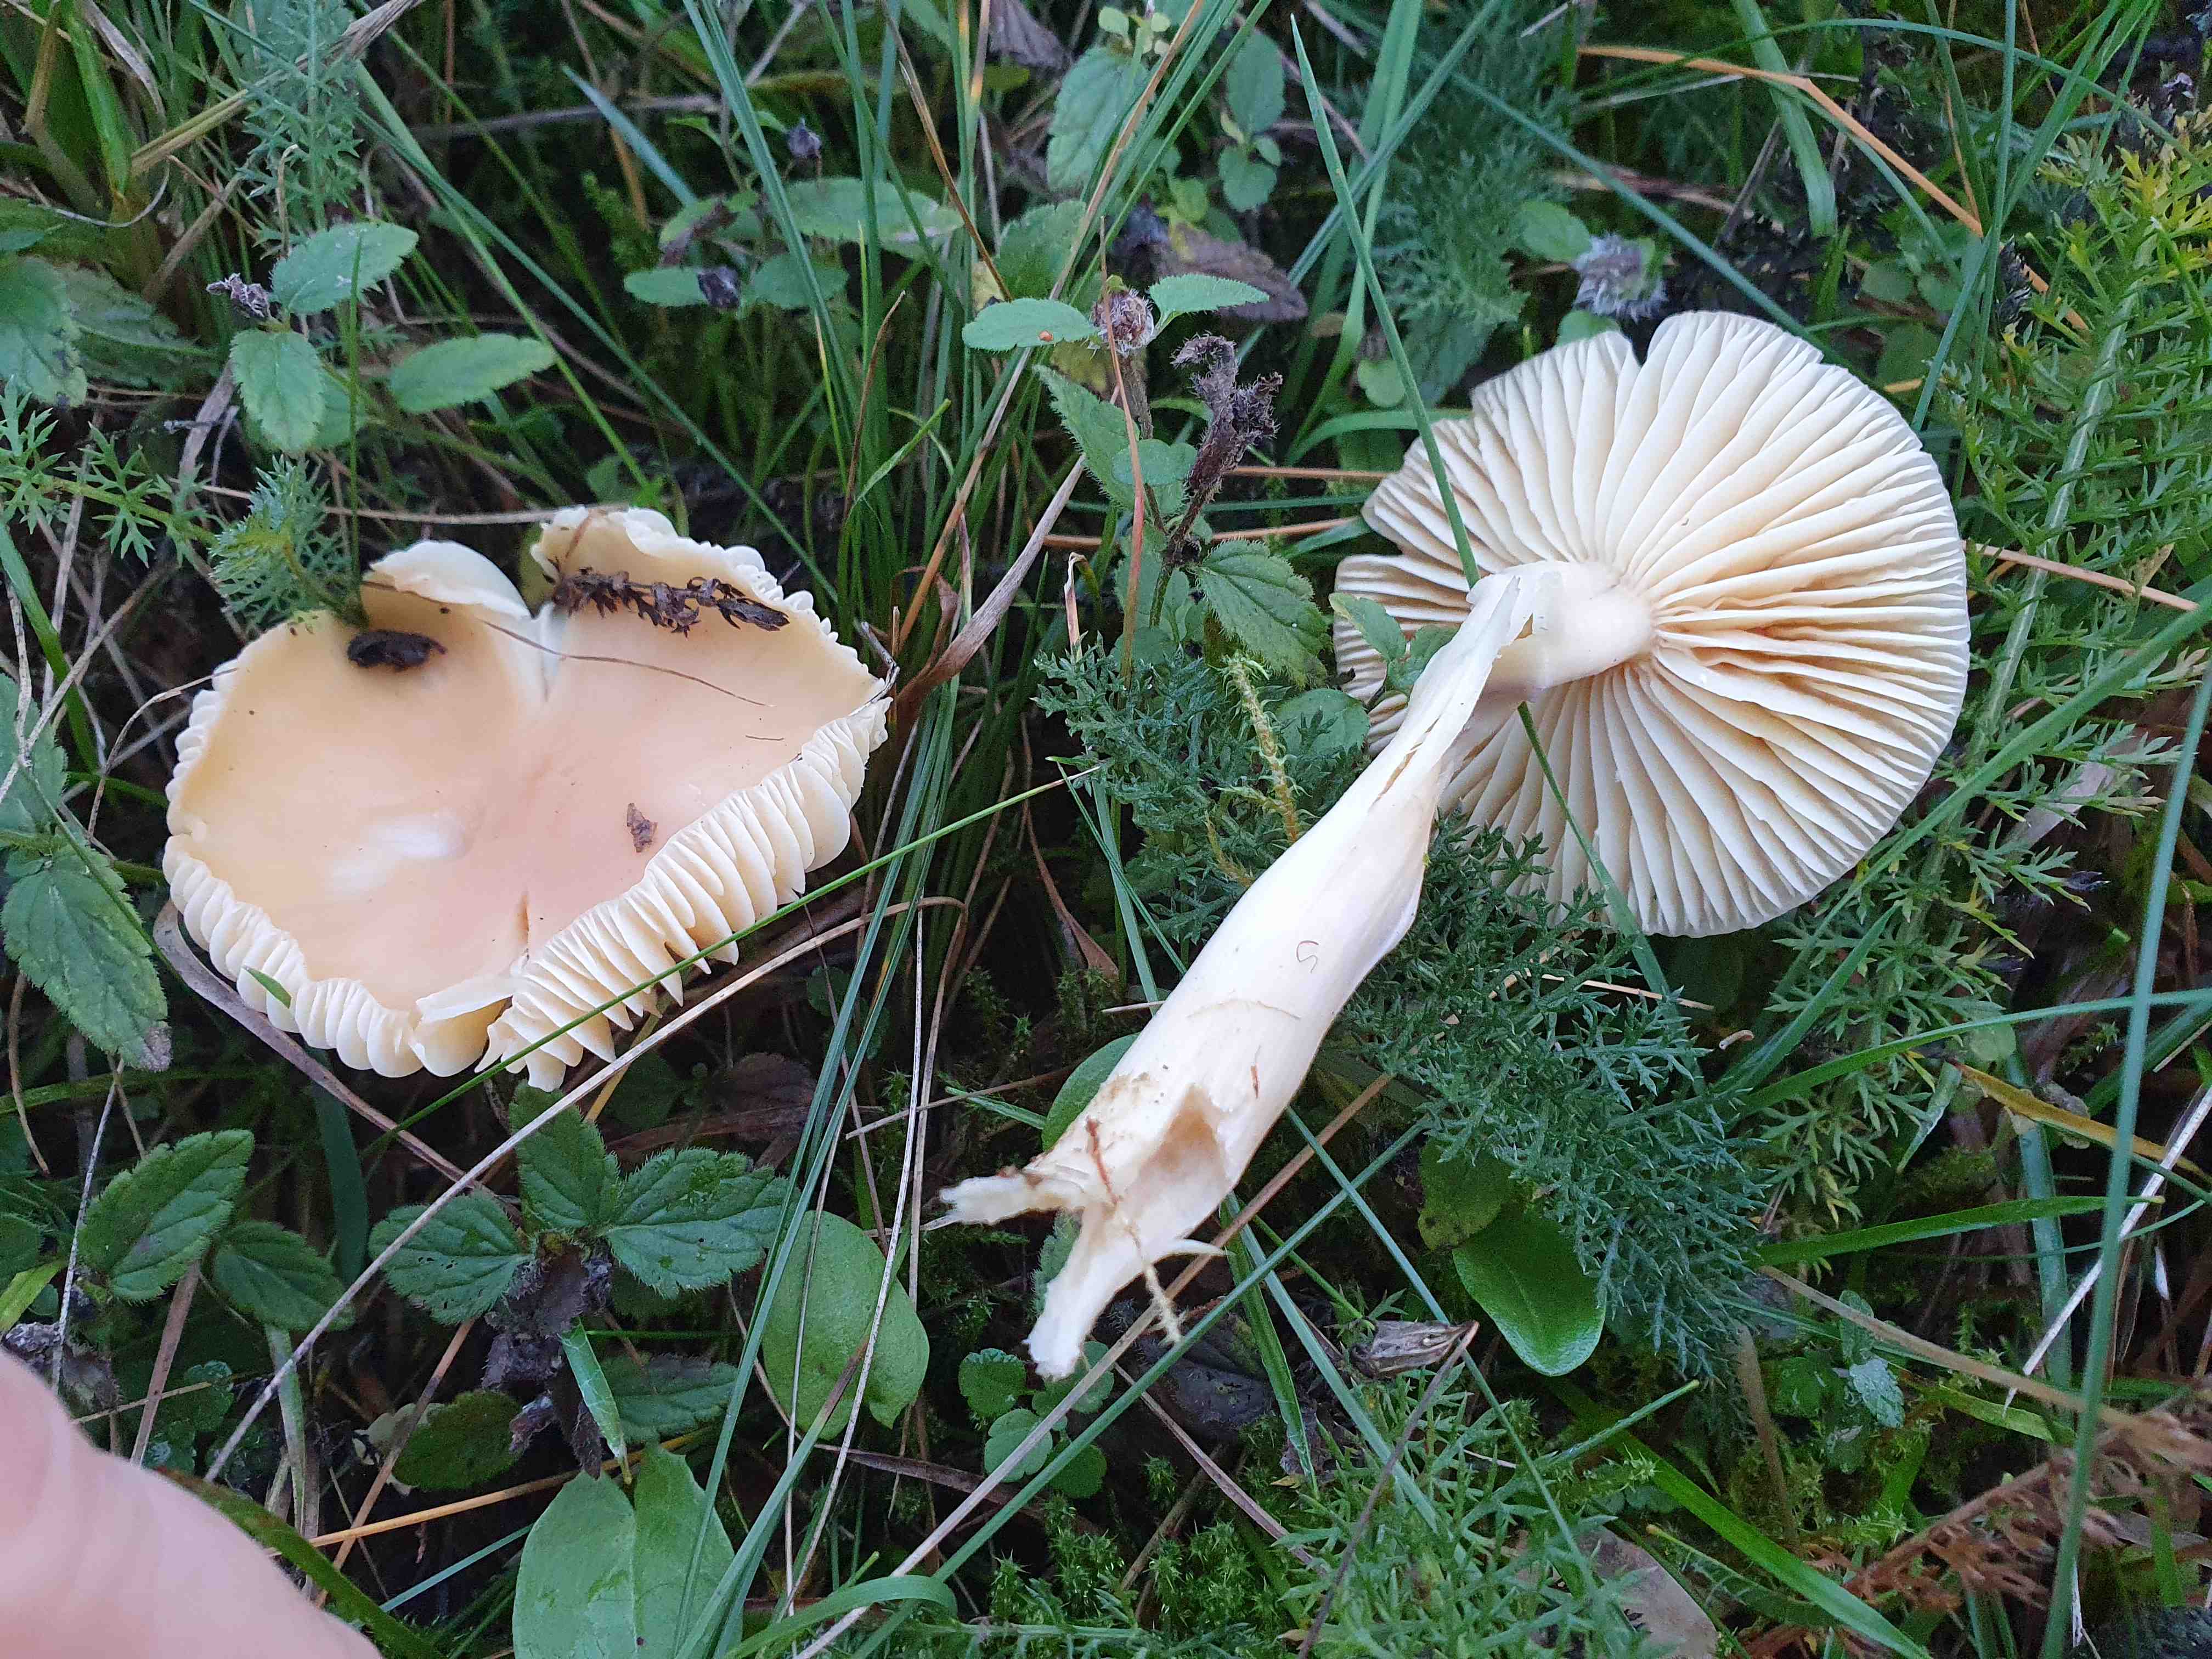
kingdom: Fungi
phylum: Basidiomycota
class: Agaricomycetes
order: Agaricales
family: Hygrophoraceae
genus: Cuphophyllus
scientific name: Cuphophyllus pratensis
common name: eng-vokshat
